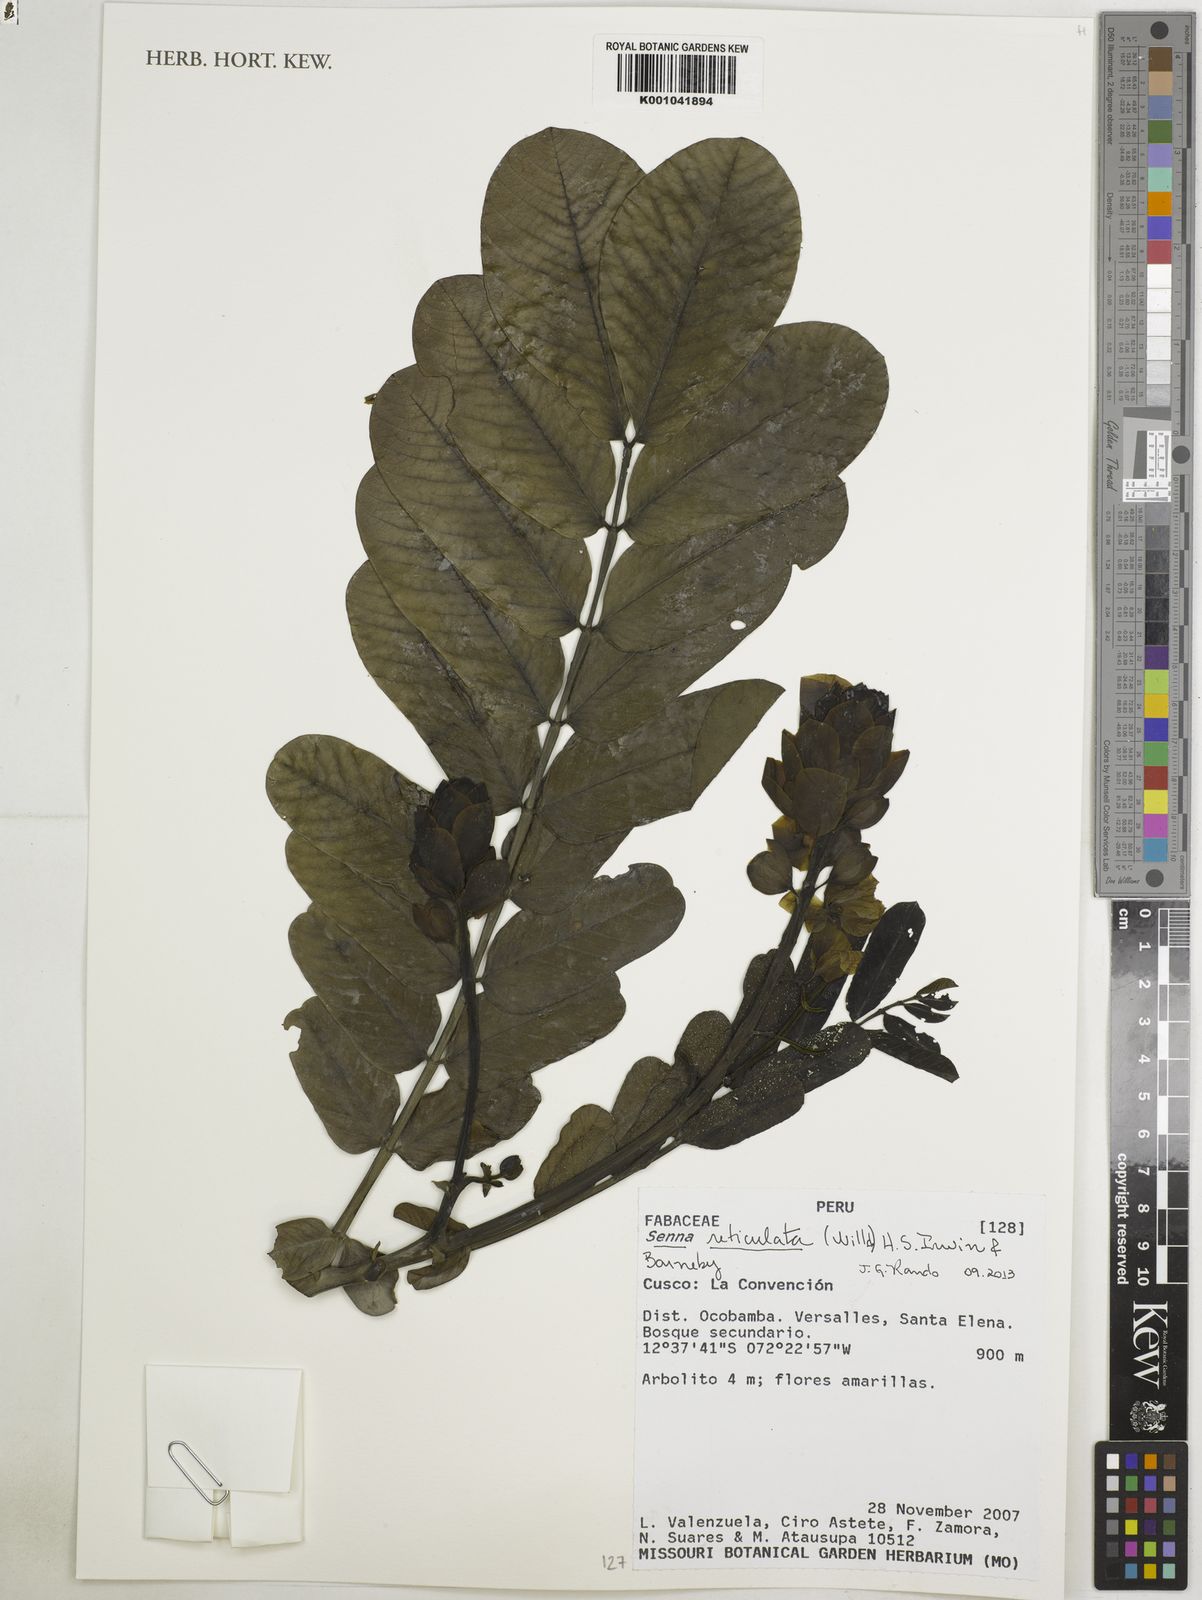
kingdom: Plantae
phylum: Tracheophyta
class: Magnoliopsida
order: Fabales
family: Fabaceae
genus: Senna
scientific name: Senna reticulata
